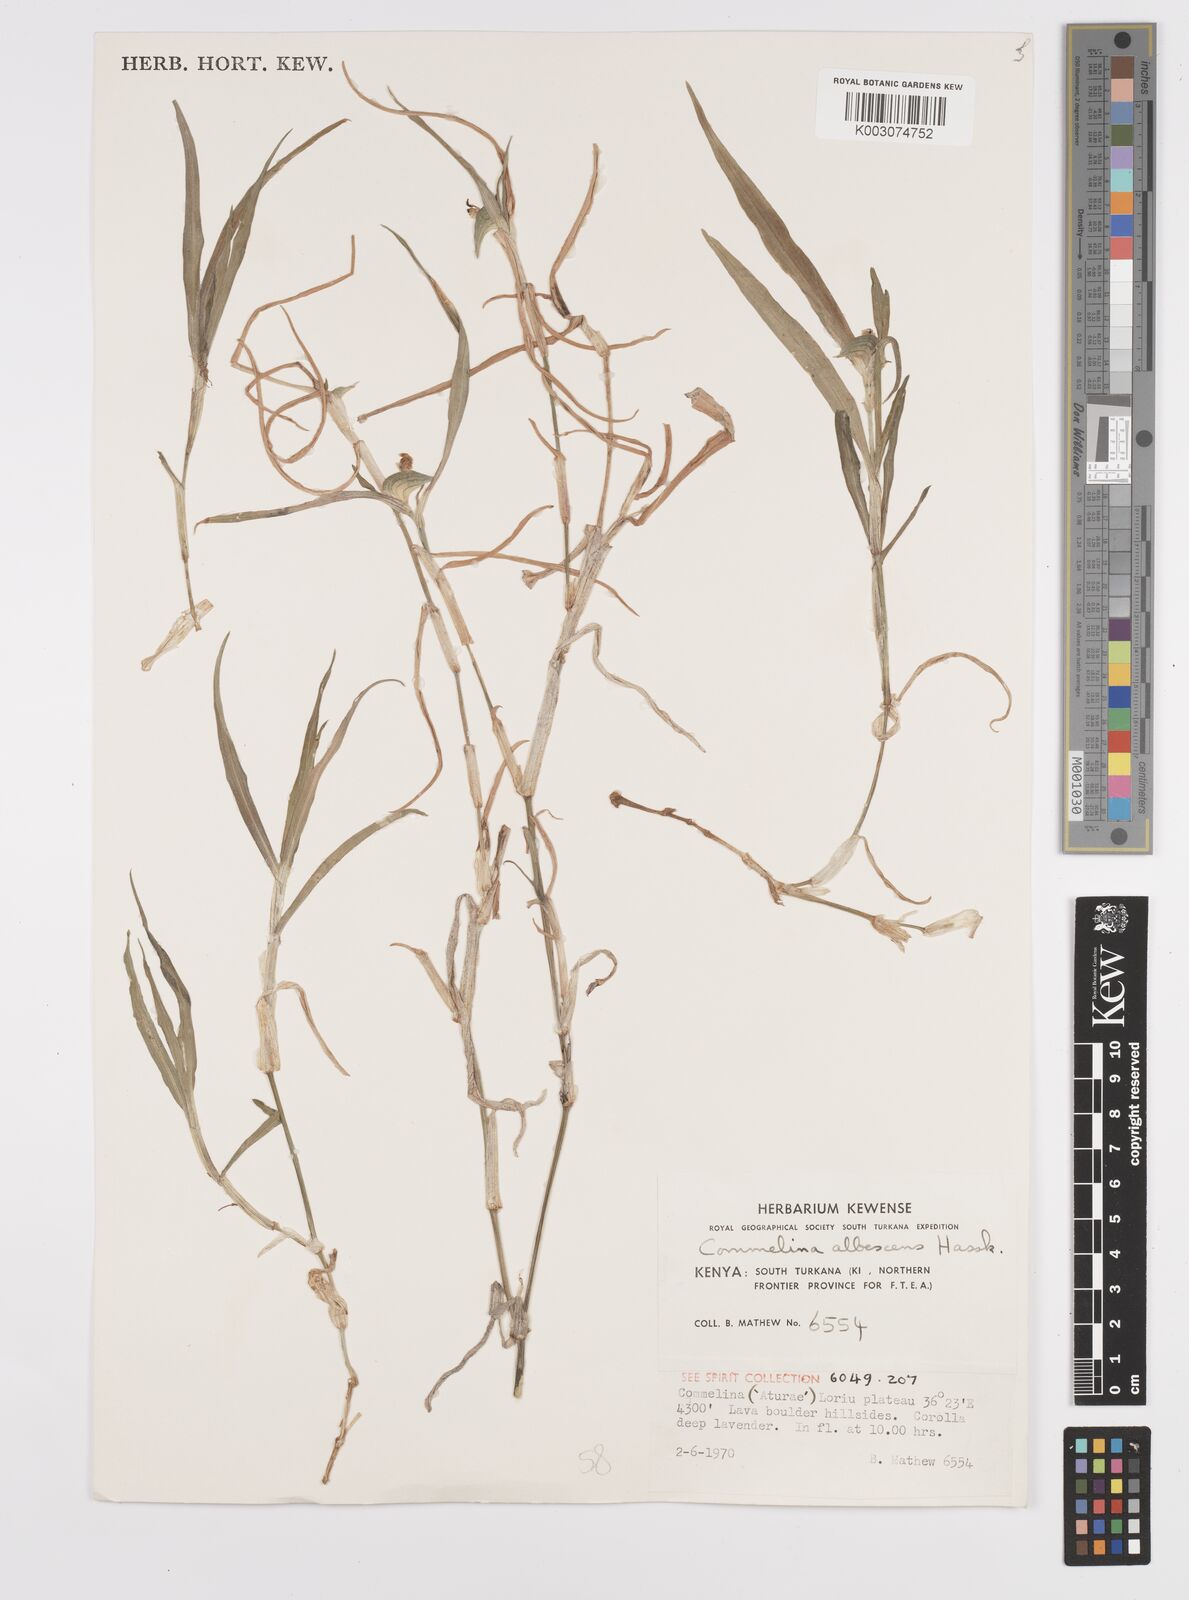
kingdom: Plantae
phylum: Tracheophyta
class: Liliopsida
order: Commelinales
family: Commelinaceae
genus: Commelina
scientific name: Commelina albescens
